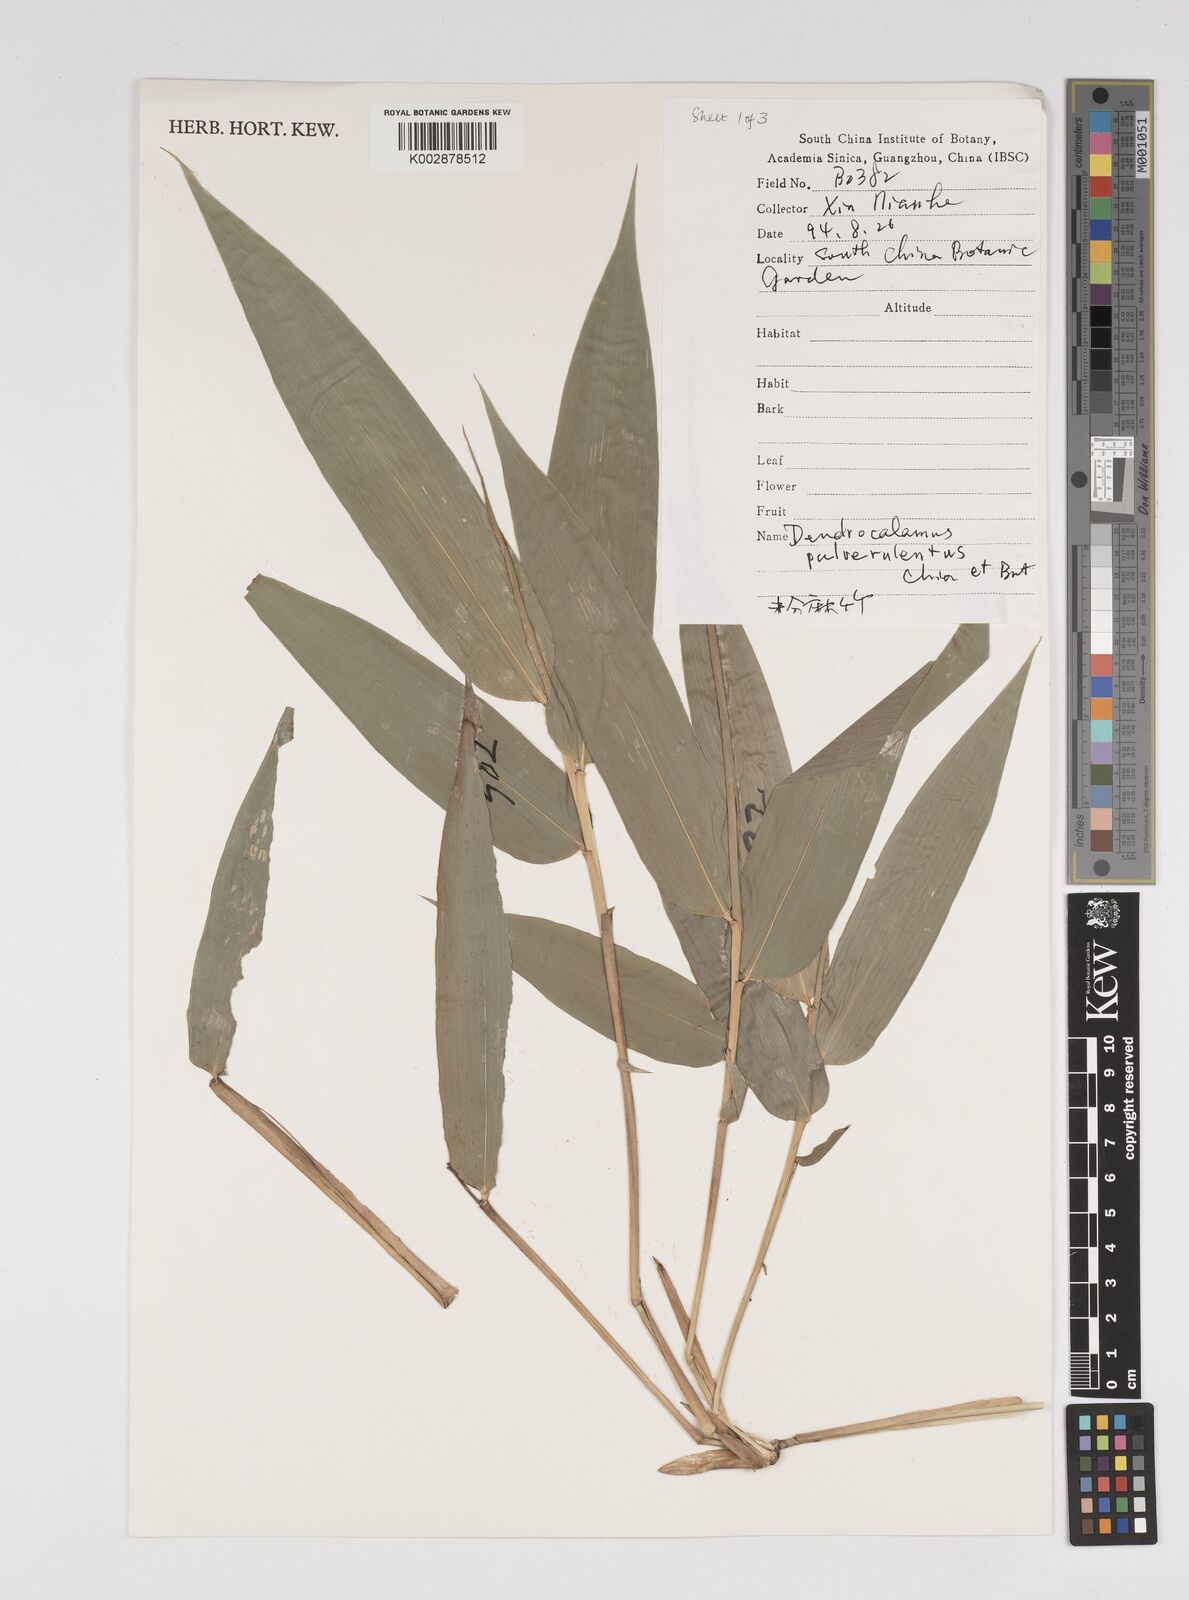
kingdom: Plantae
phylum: Tracheophyta
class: Liliopsida
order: Poales
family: Poaceae
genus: Dendrocalamus
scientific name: Dendrocalamus pulverulentus
